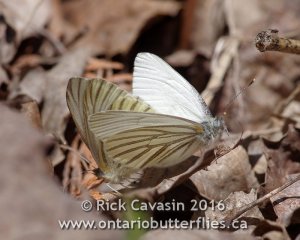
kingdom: Animalia
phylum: Arthropoda
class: Insecta
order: Lepidoptera
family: Pieridae
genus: Pieris
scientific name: Pieris oleracea
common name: Mustard White
